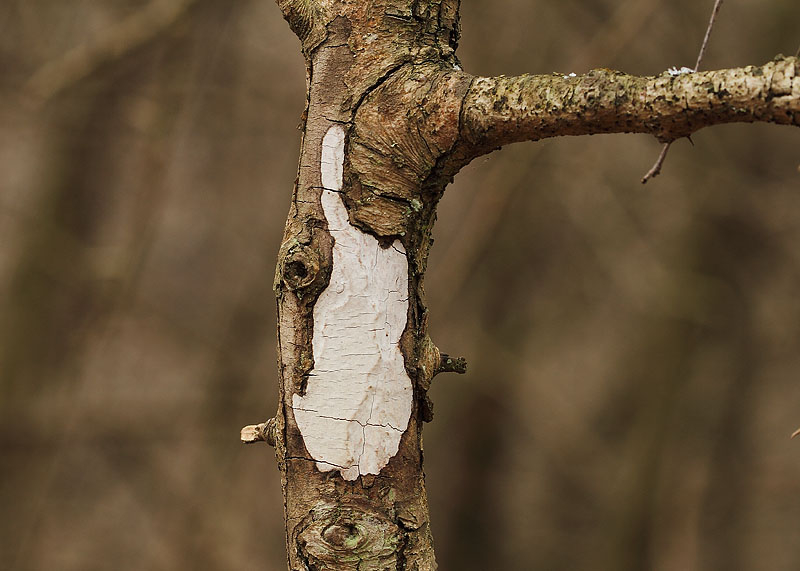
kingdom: Fungi
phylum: Basidiomycota
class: Agaricomycetes
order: Corticiales
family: Vuilleminiaceae
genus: Vuilleminia
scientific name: Vuilleminia cystidiata
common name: tjørne-barksprænger
